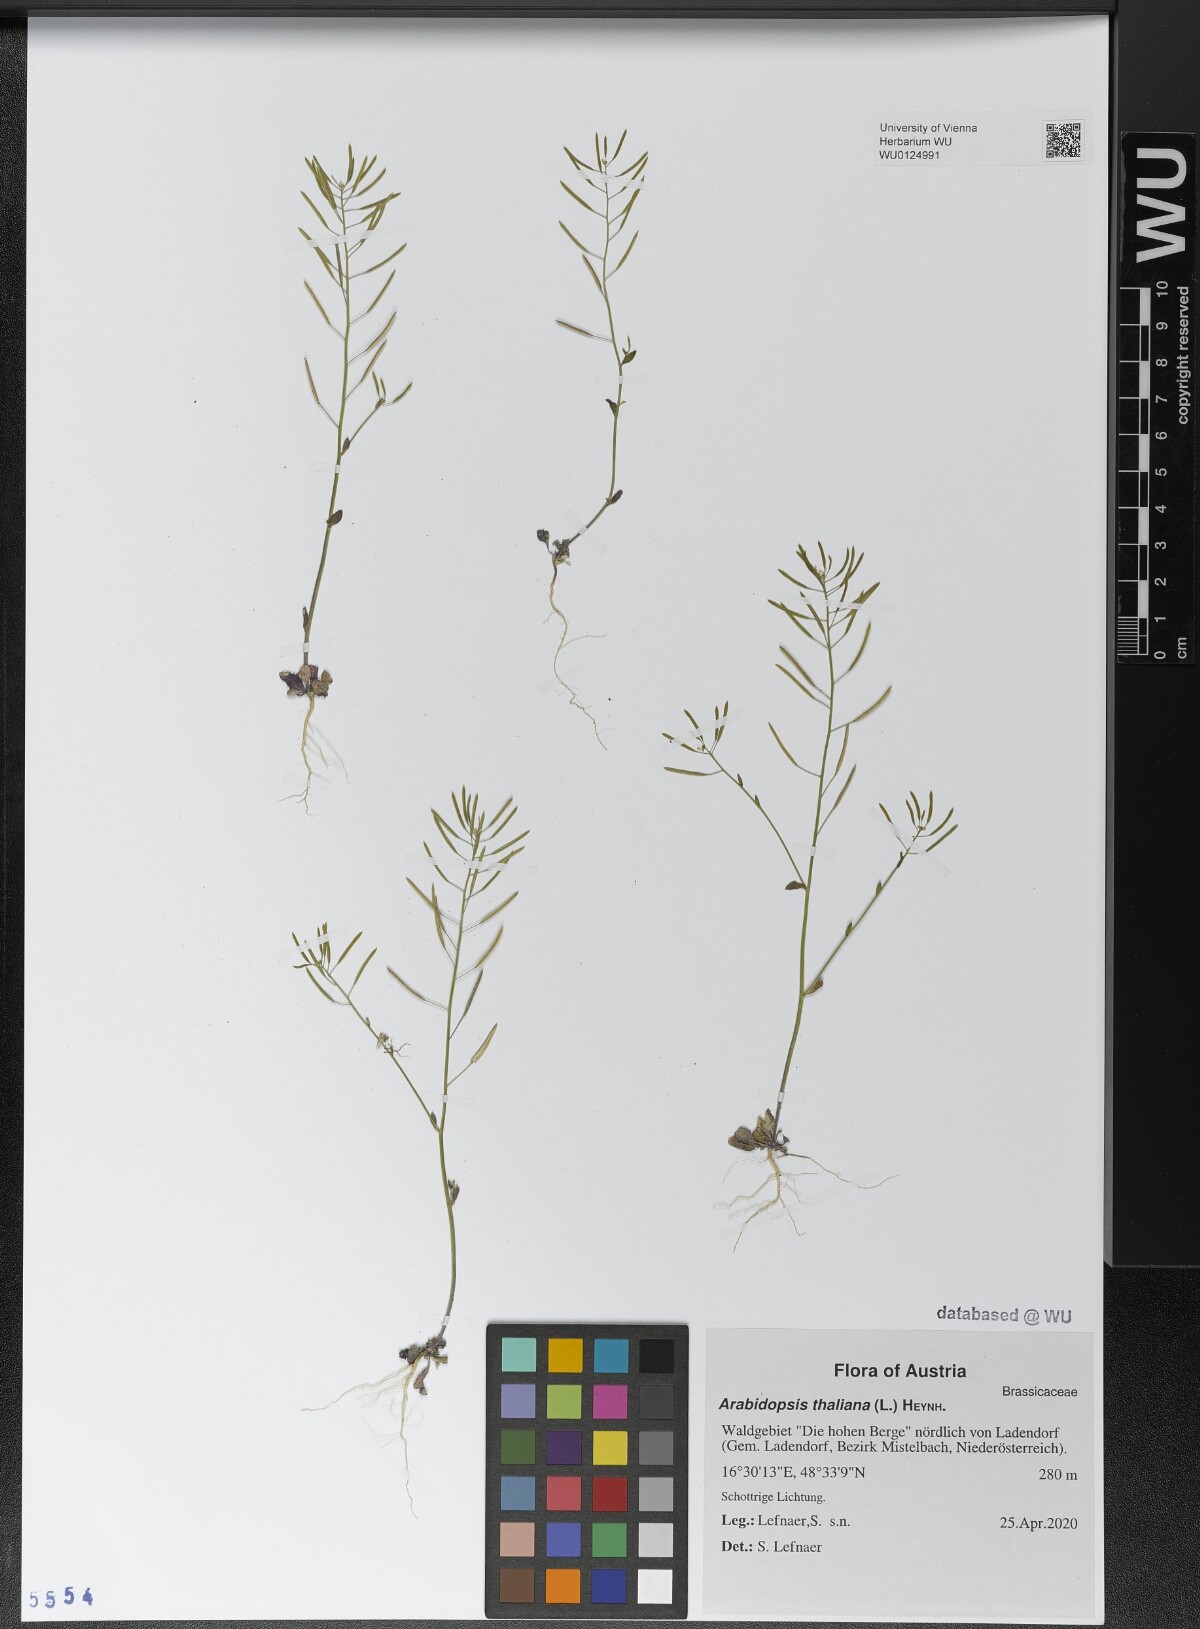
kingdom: Plantae
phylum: Tracheophyta
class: Magnoliopsida
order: Brassicales
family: Brassicaceae
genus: Arabidopsis
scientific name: Arabidopsis thaliana
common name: Thale cress
